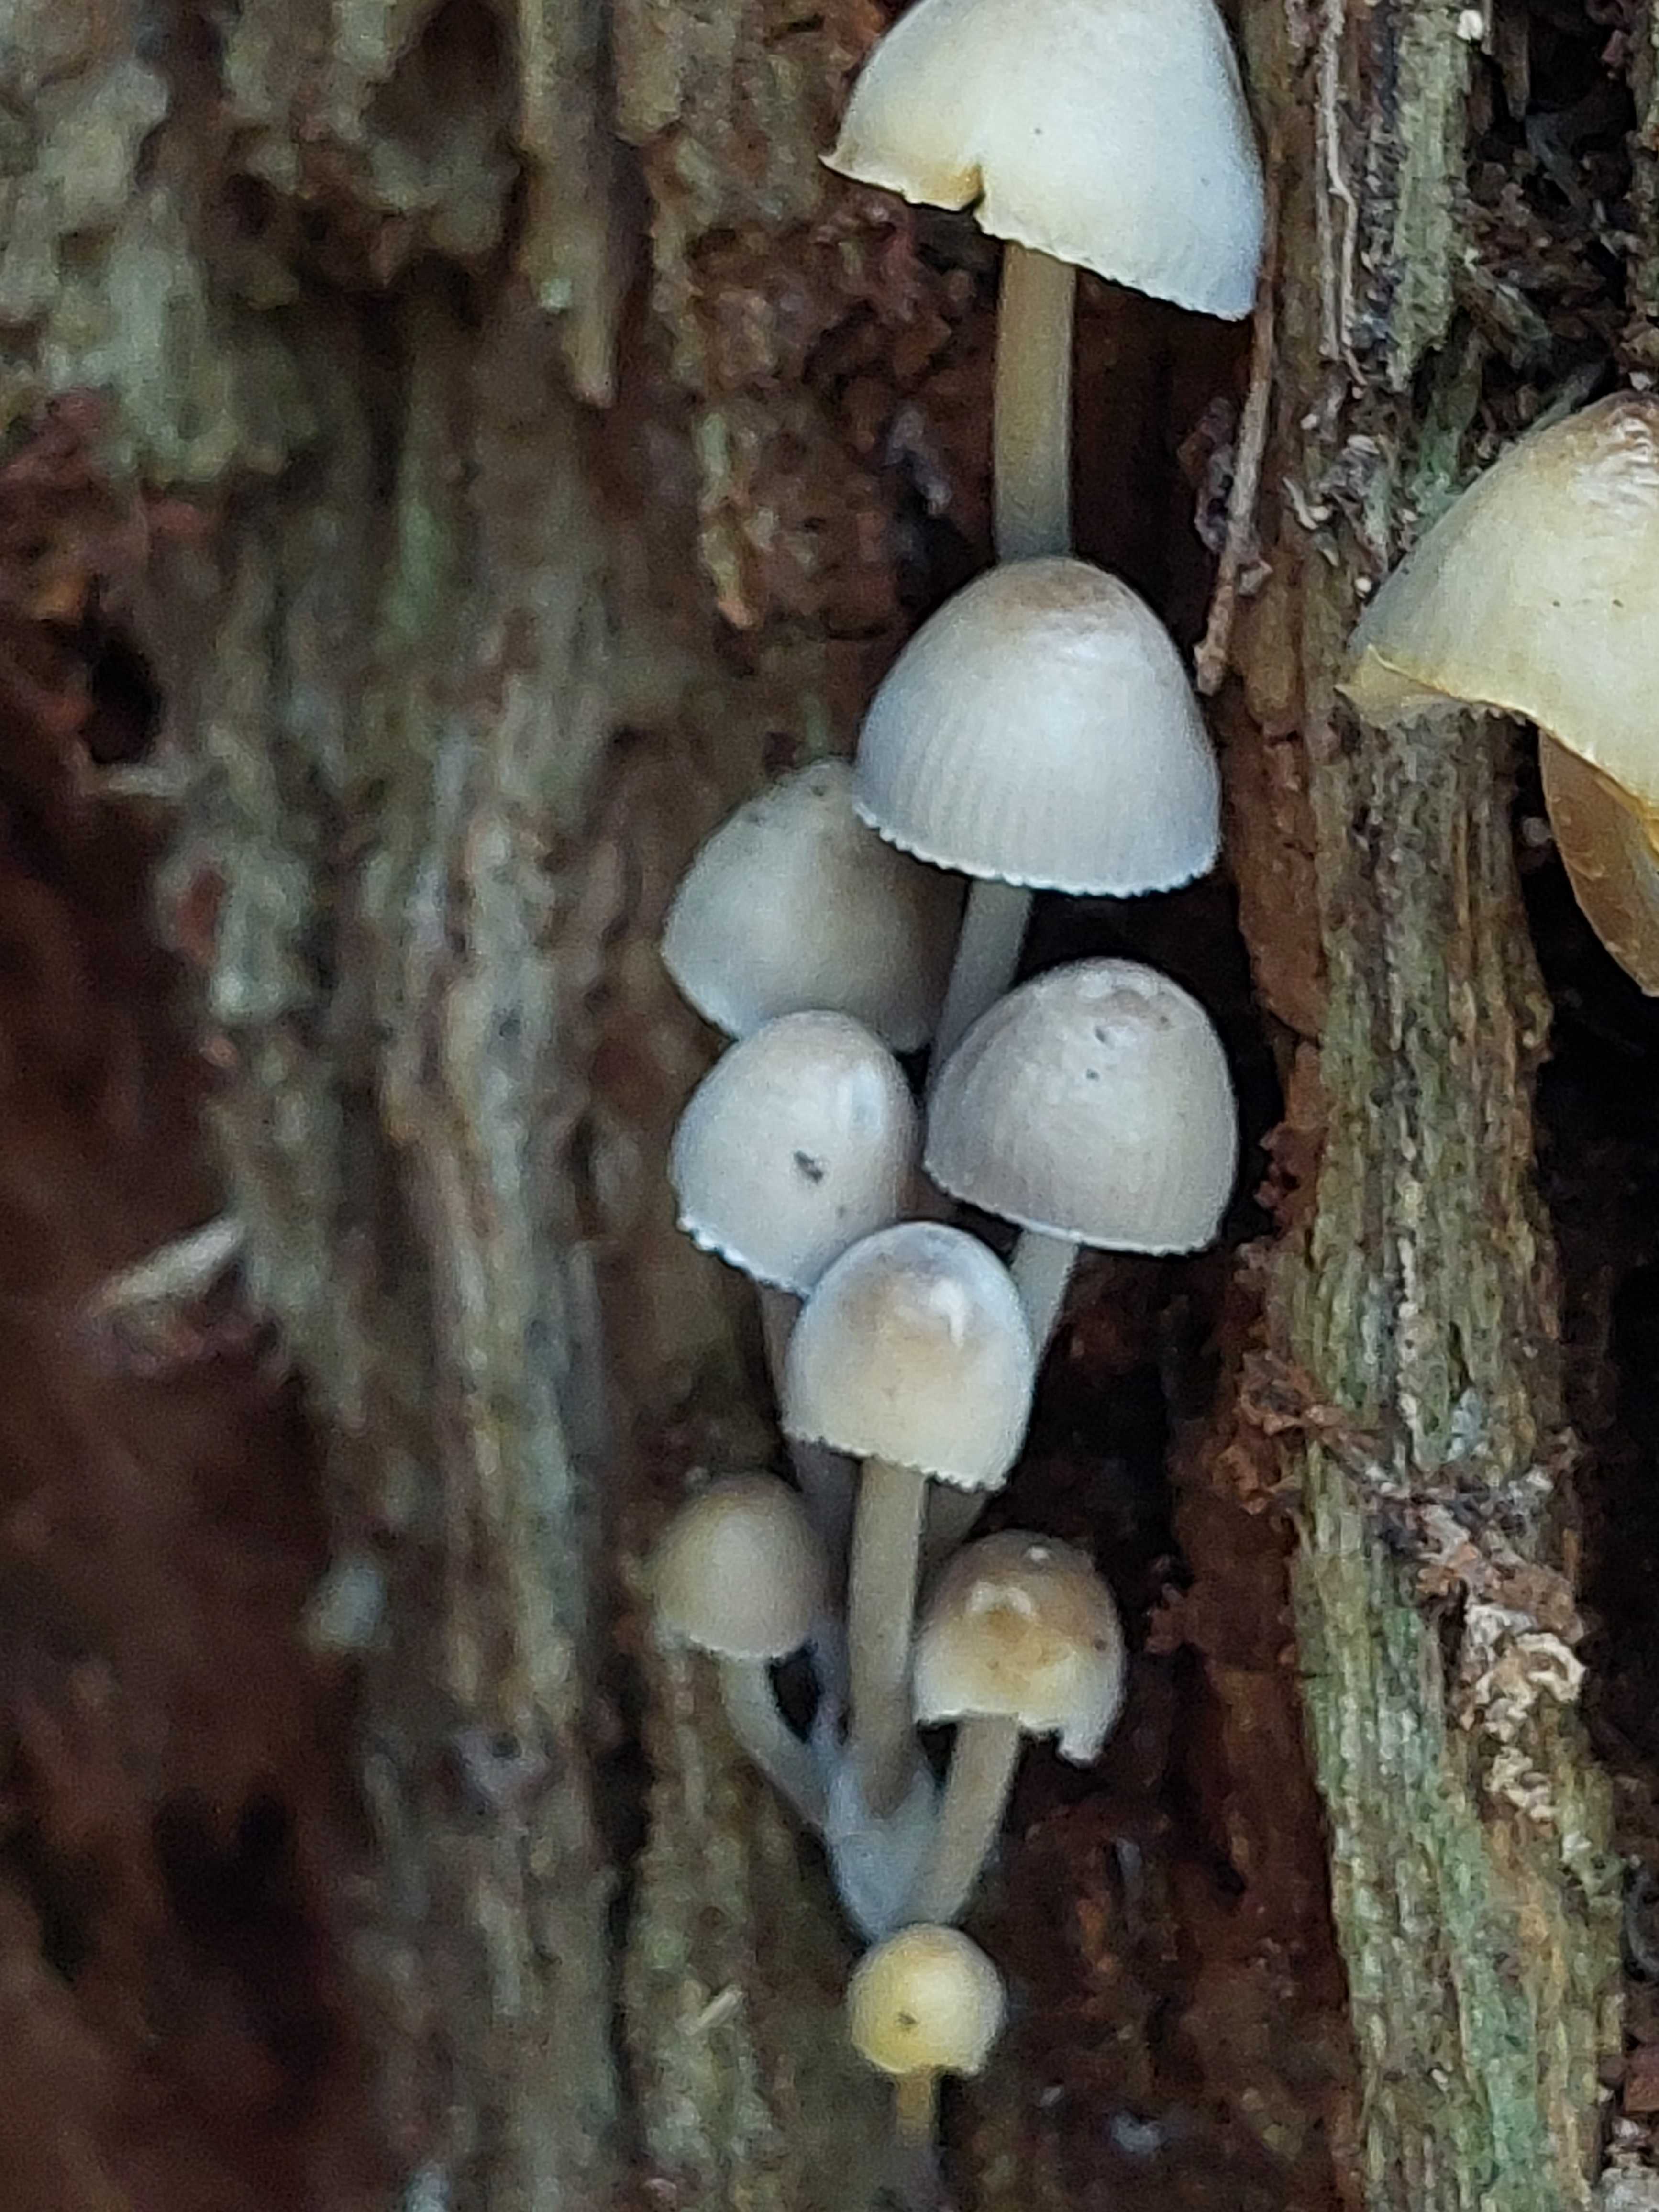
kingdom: Fungi
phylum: Basidiomycota
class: Agaricomycetes
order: Agaricales
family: Mycenaceae
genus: Mycena
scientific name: Mycena inclinata
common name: nikkende huesvamp
